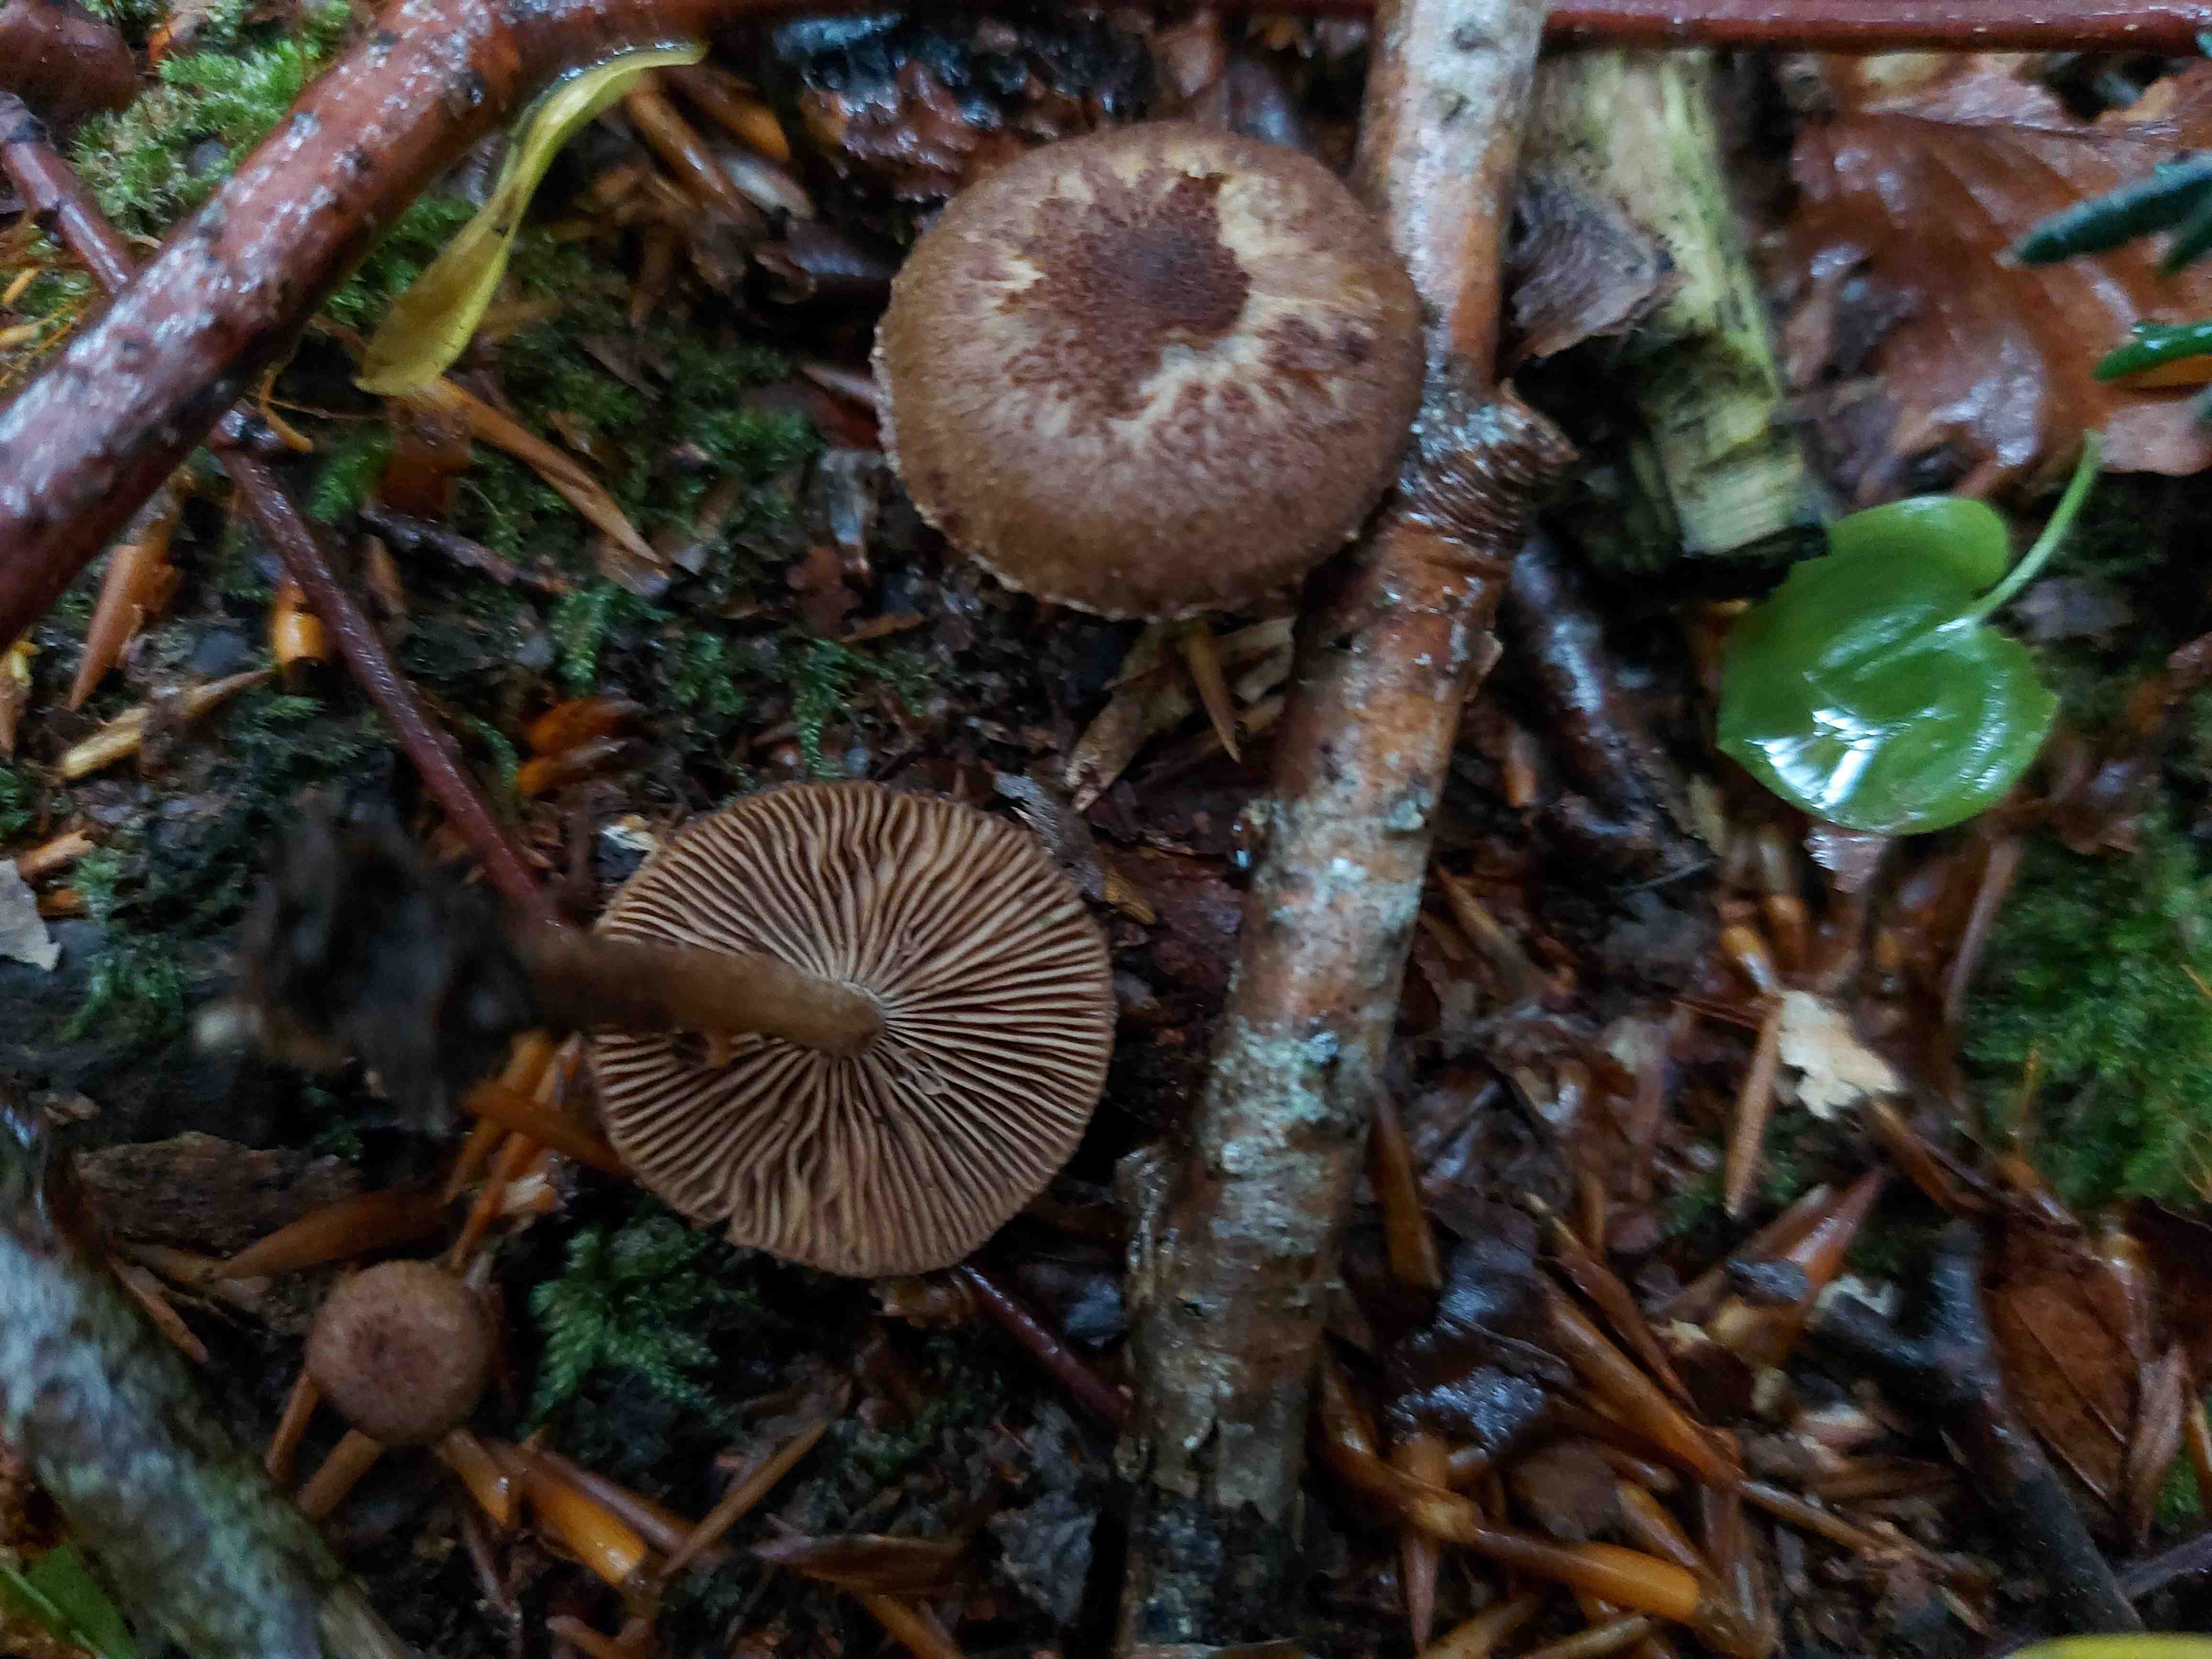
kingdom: Fungi
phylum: Basidiomycota
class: Agaricomycetes
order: Agaricales
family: Inocybaceae
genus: Inocybe
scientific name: Inocybe
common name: trævlhat
